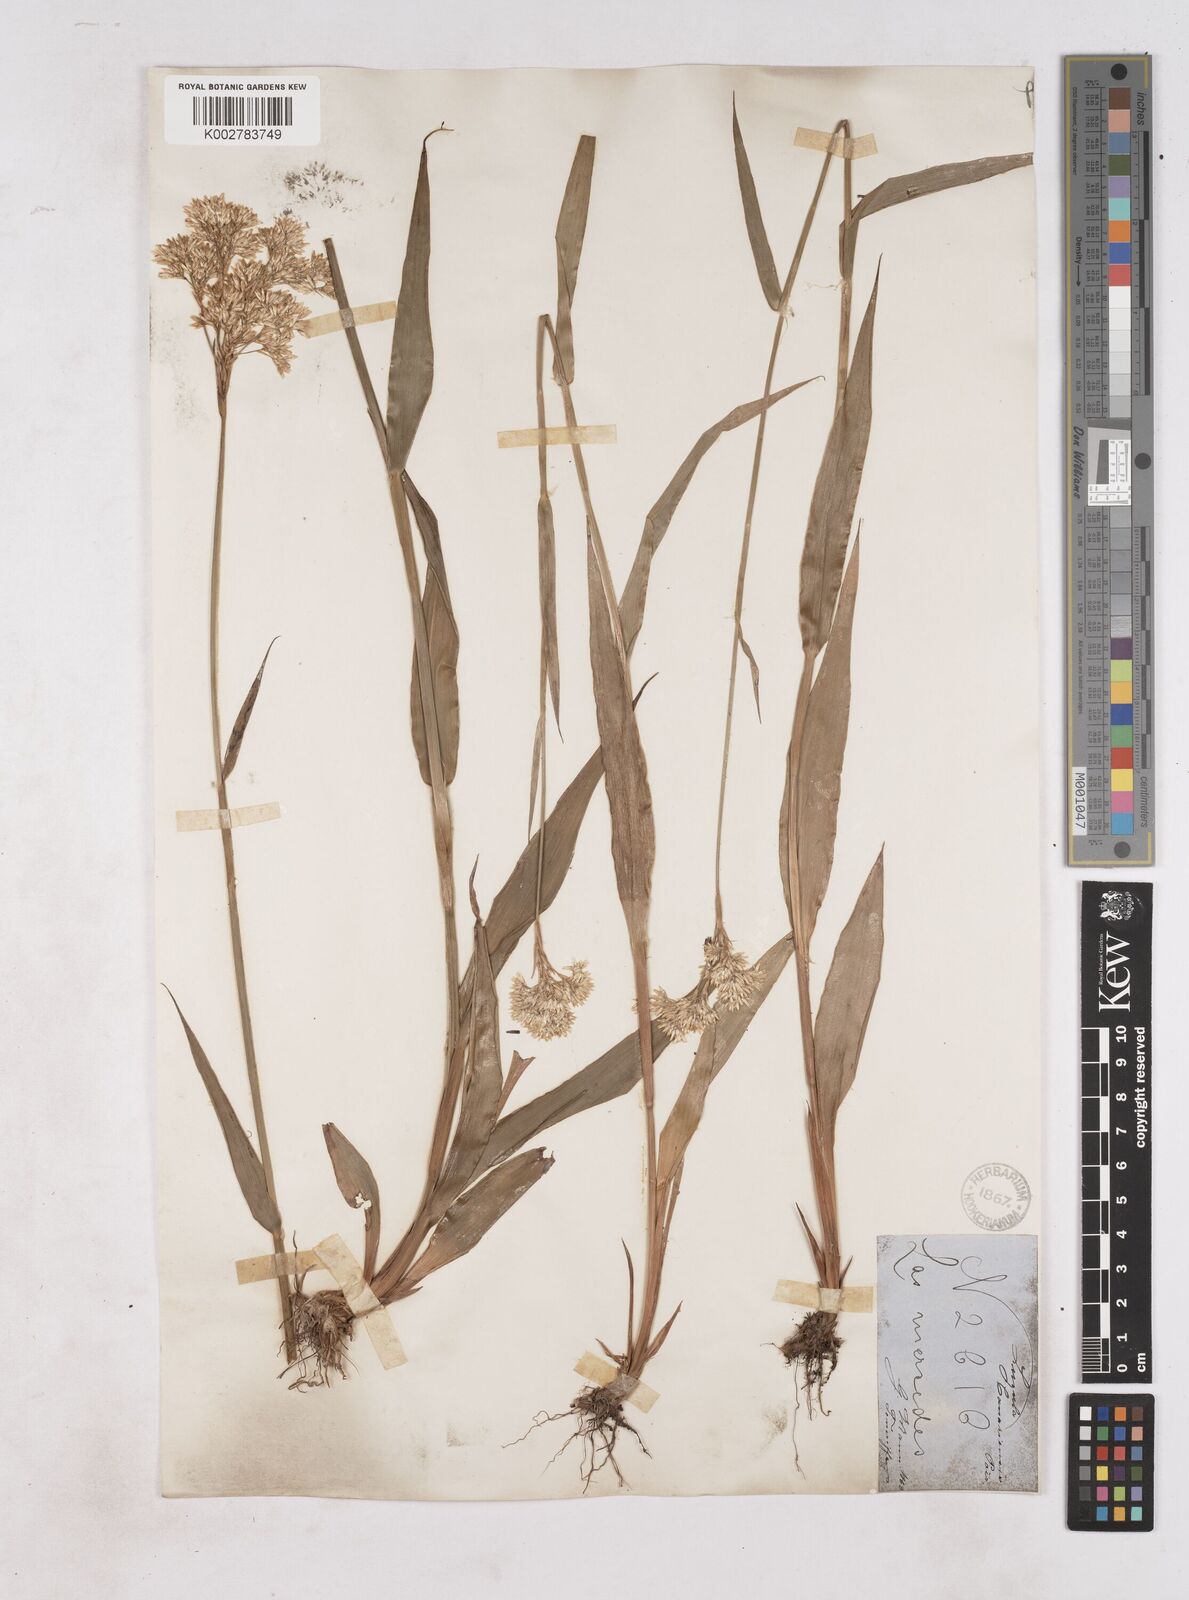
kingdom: Plantae
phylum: Tracheophyta
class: Liliopsida
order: Poales
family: Juncaceae
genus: Luzula
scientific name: Luzula canariensis
